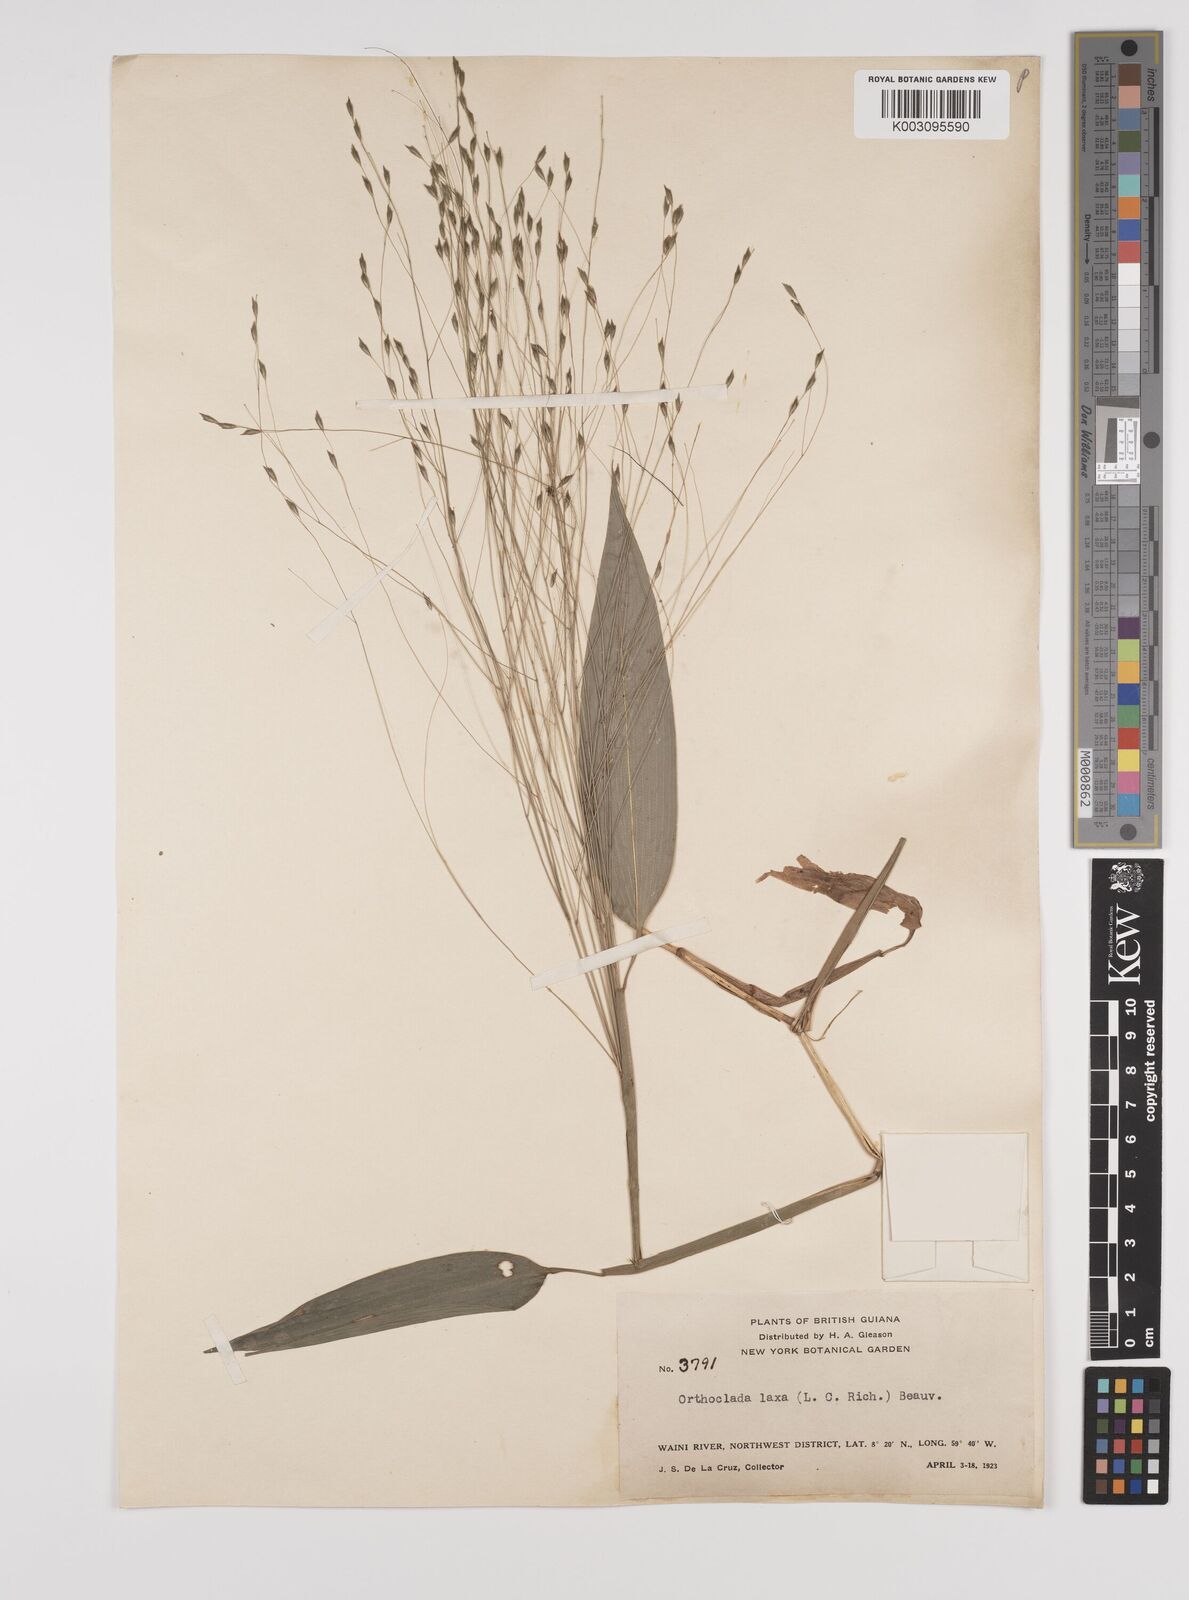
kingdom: Plantae
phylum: Tracheophyta
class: Liliopsida
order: Poales
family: Poaceae
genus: Orthoclada
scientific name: Orthoclada laxa
